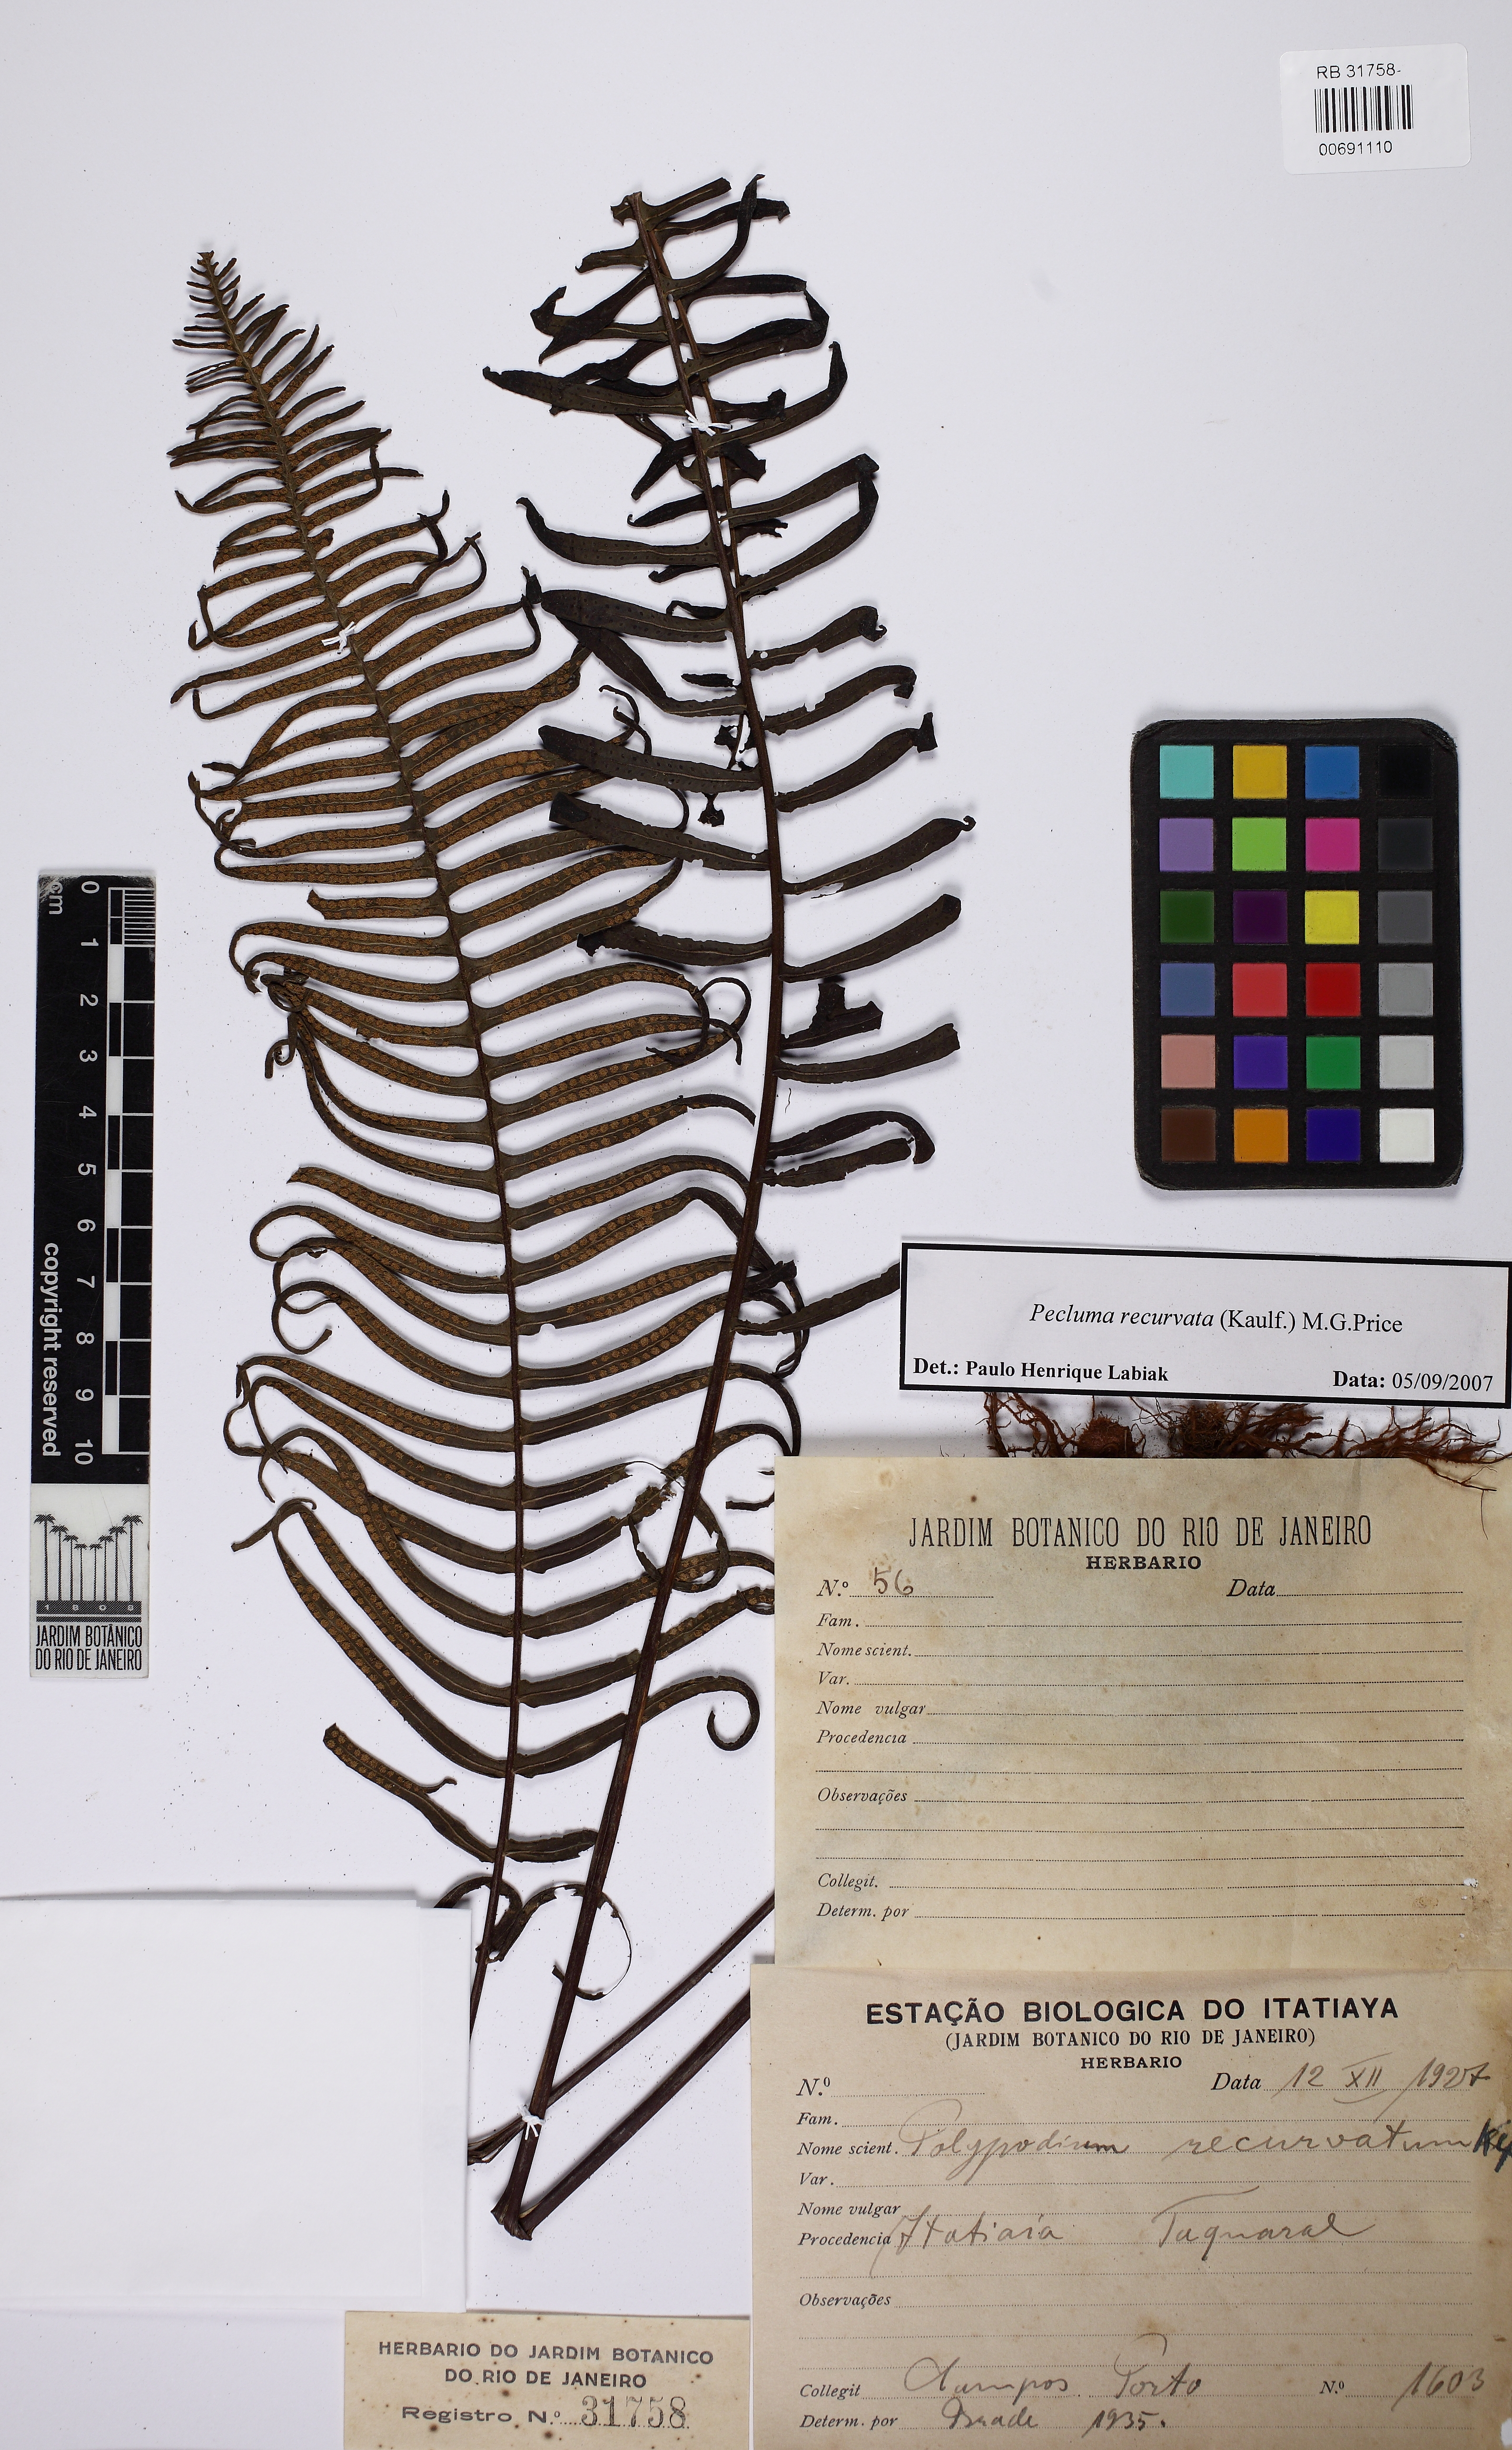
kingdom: Plantae
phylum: Tracheophyta
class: Polypodiopsida
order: Polypodiales
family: Polypodiaceae
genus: Pecluma
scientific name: Pecluma recurvata
